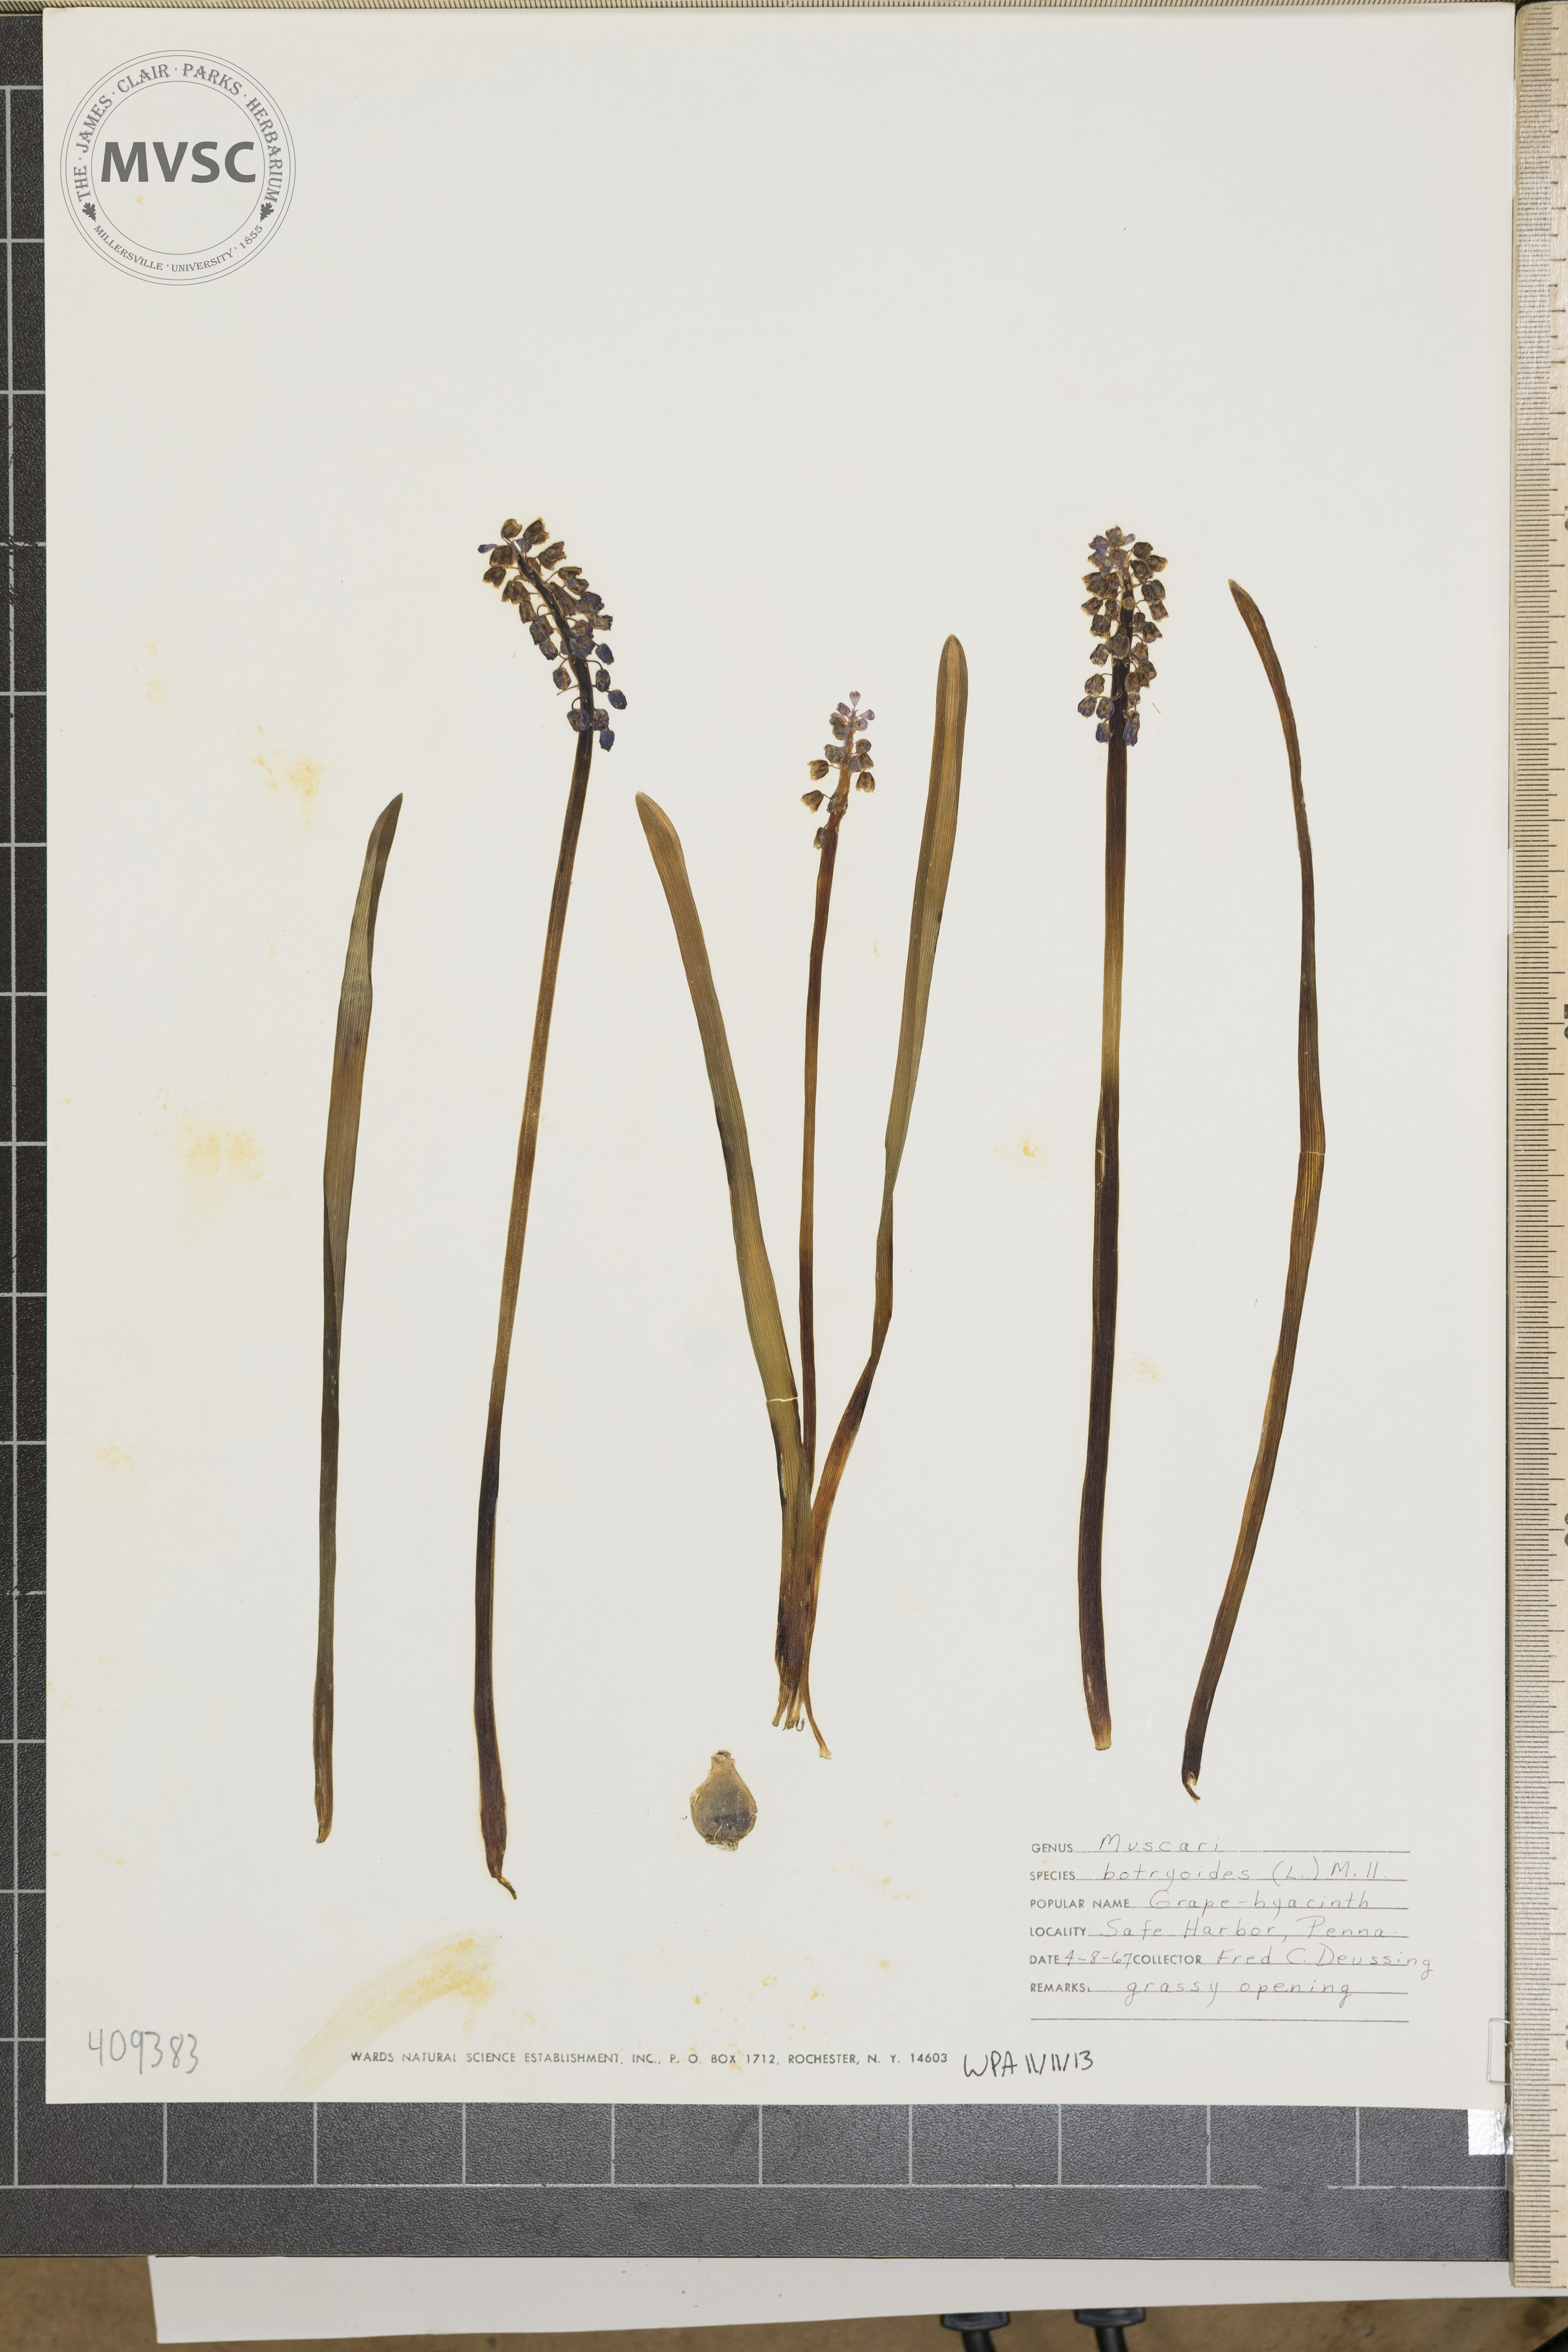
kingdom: Plantae
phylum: Tracheophyta
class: Liliopsida
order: Asparagales
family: Asparagaceae
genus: Muscari
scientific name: Muscari botryoides
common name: Compact grape-hyacinth
